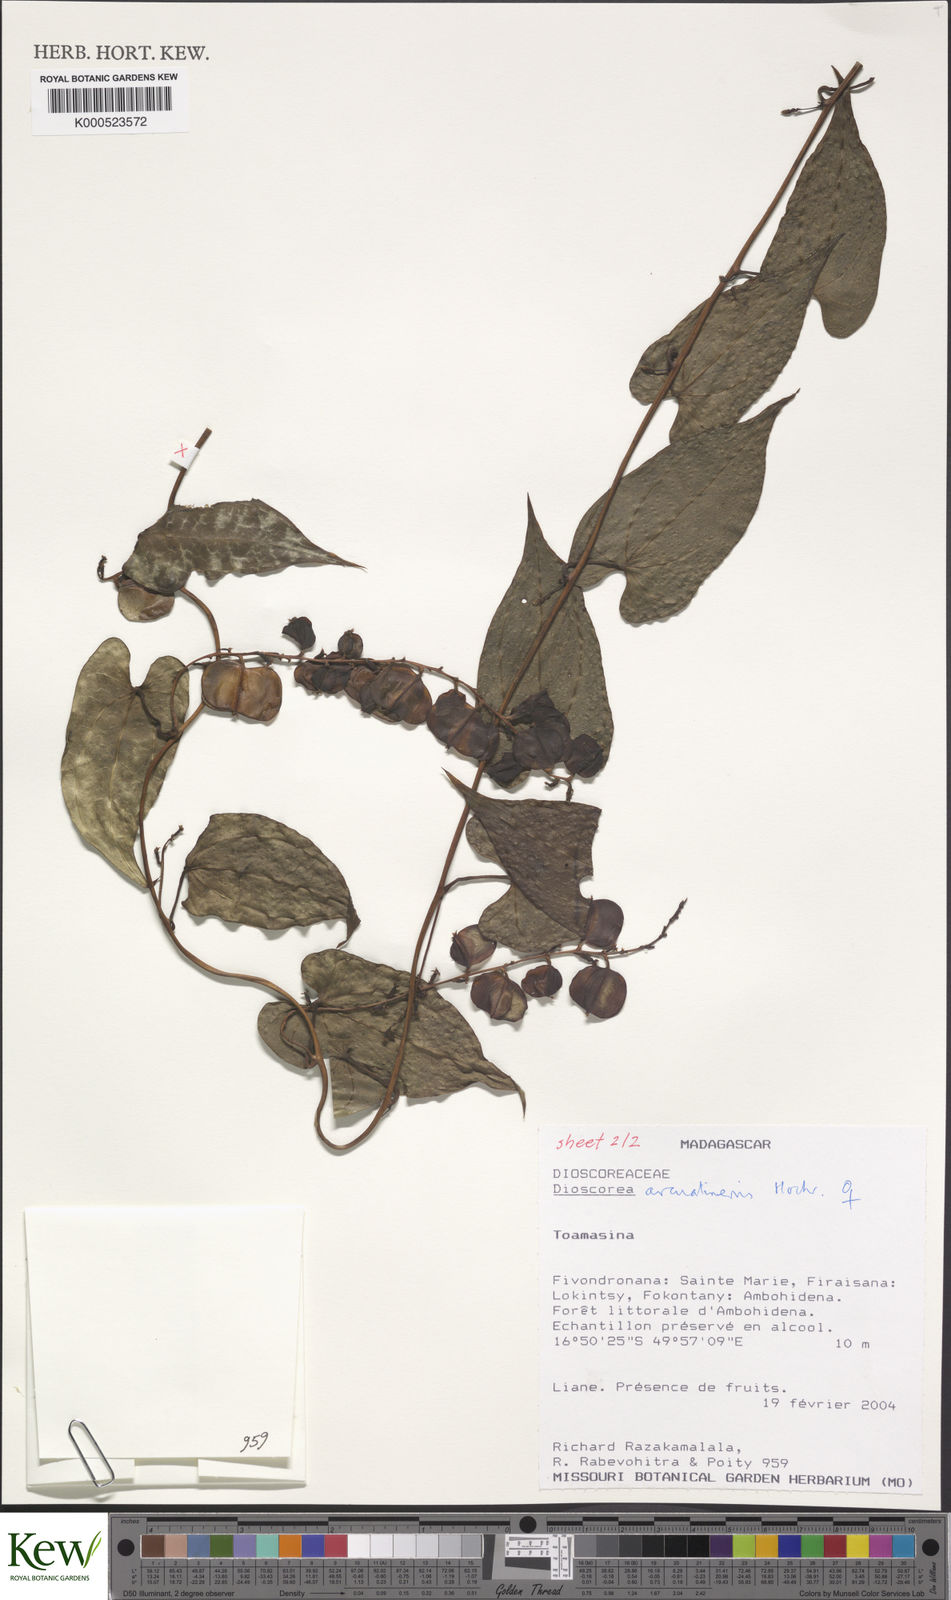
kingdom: Plantae
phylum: Tracheophyta
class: Liliopsida
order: Dioscoreales
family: Dioscoreaceae
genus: Dioscorea
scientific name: Dioscorea arcuatinervis
